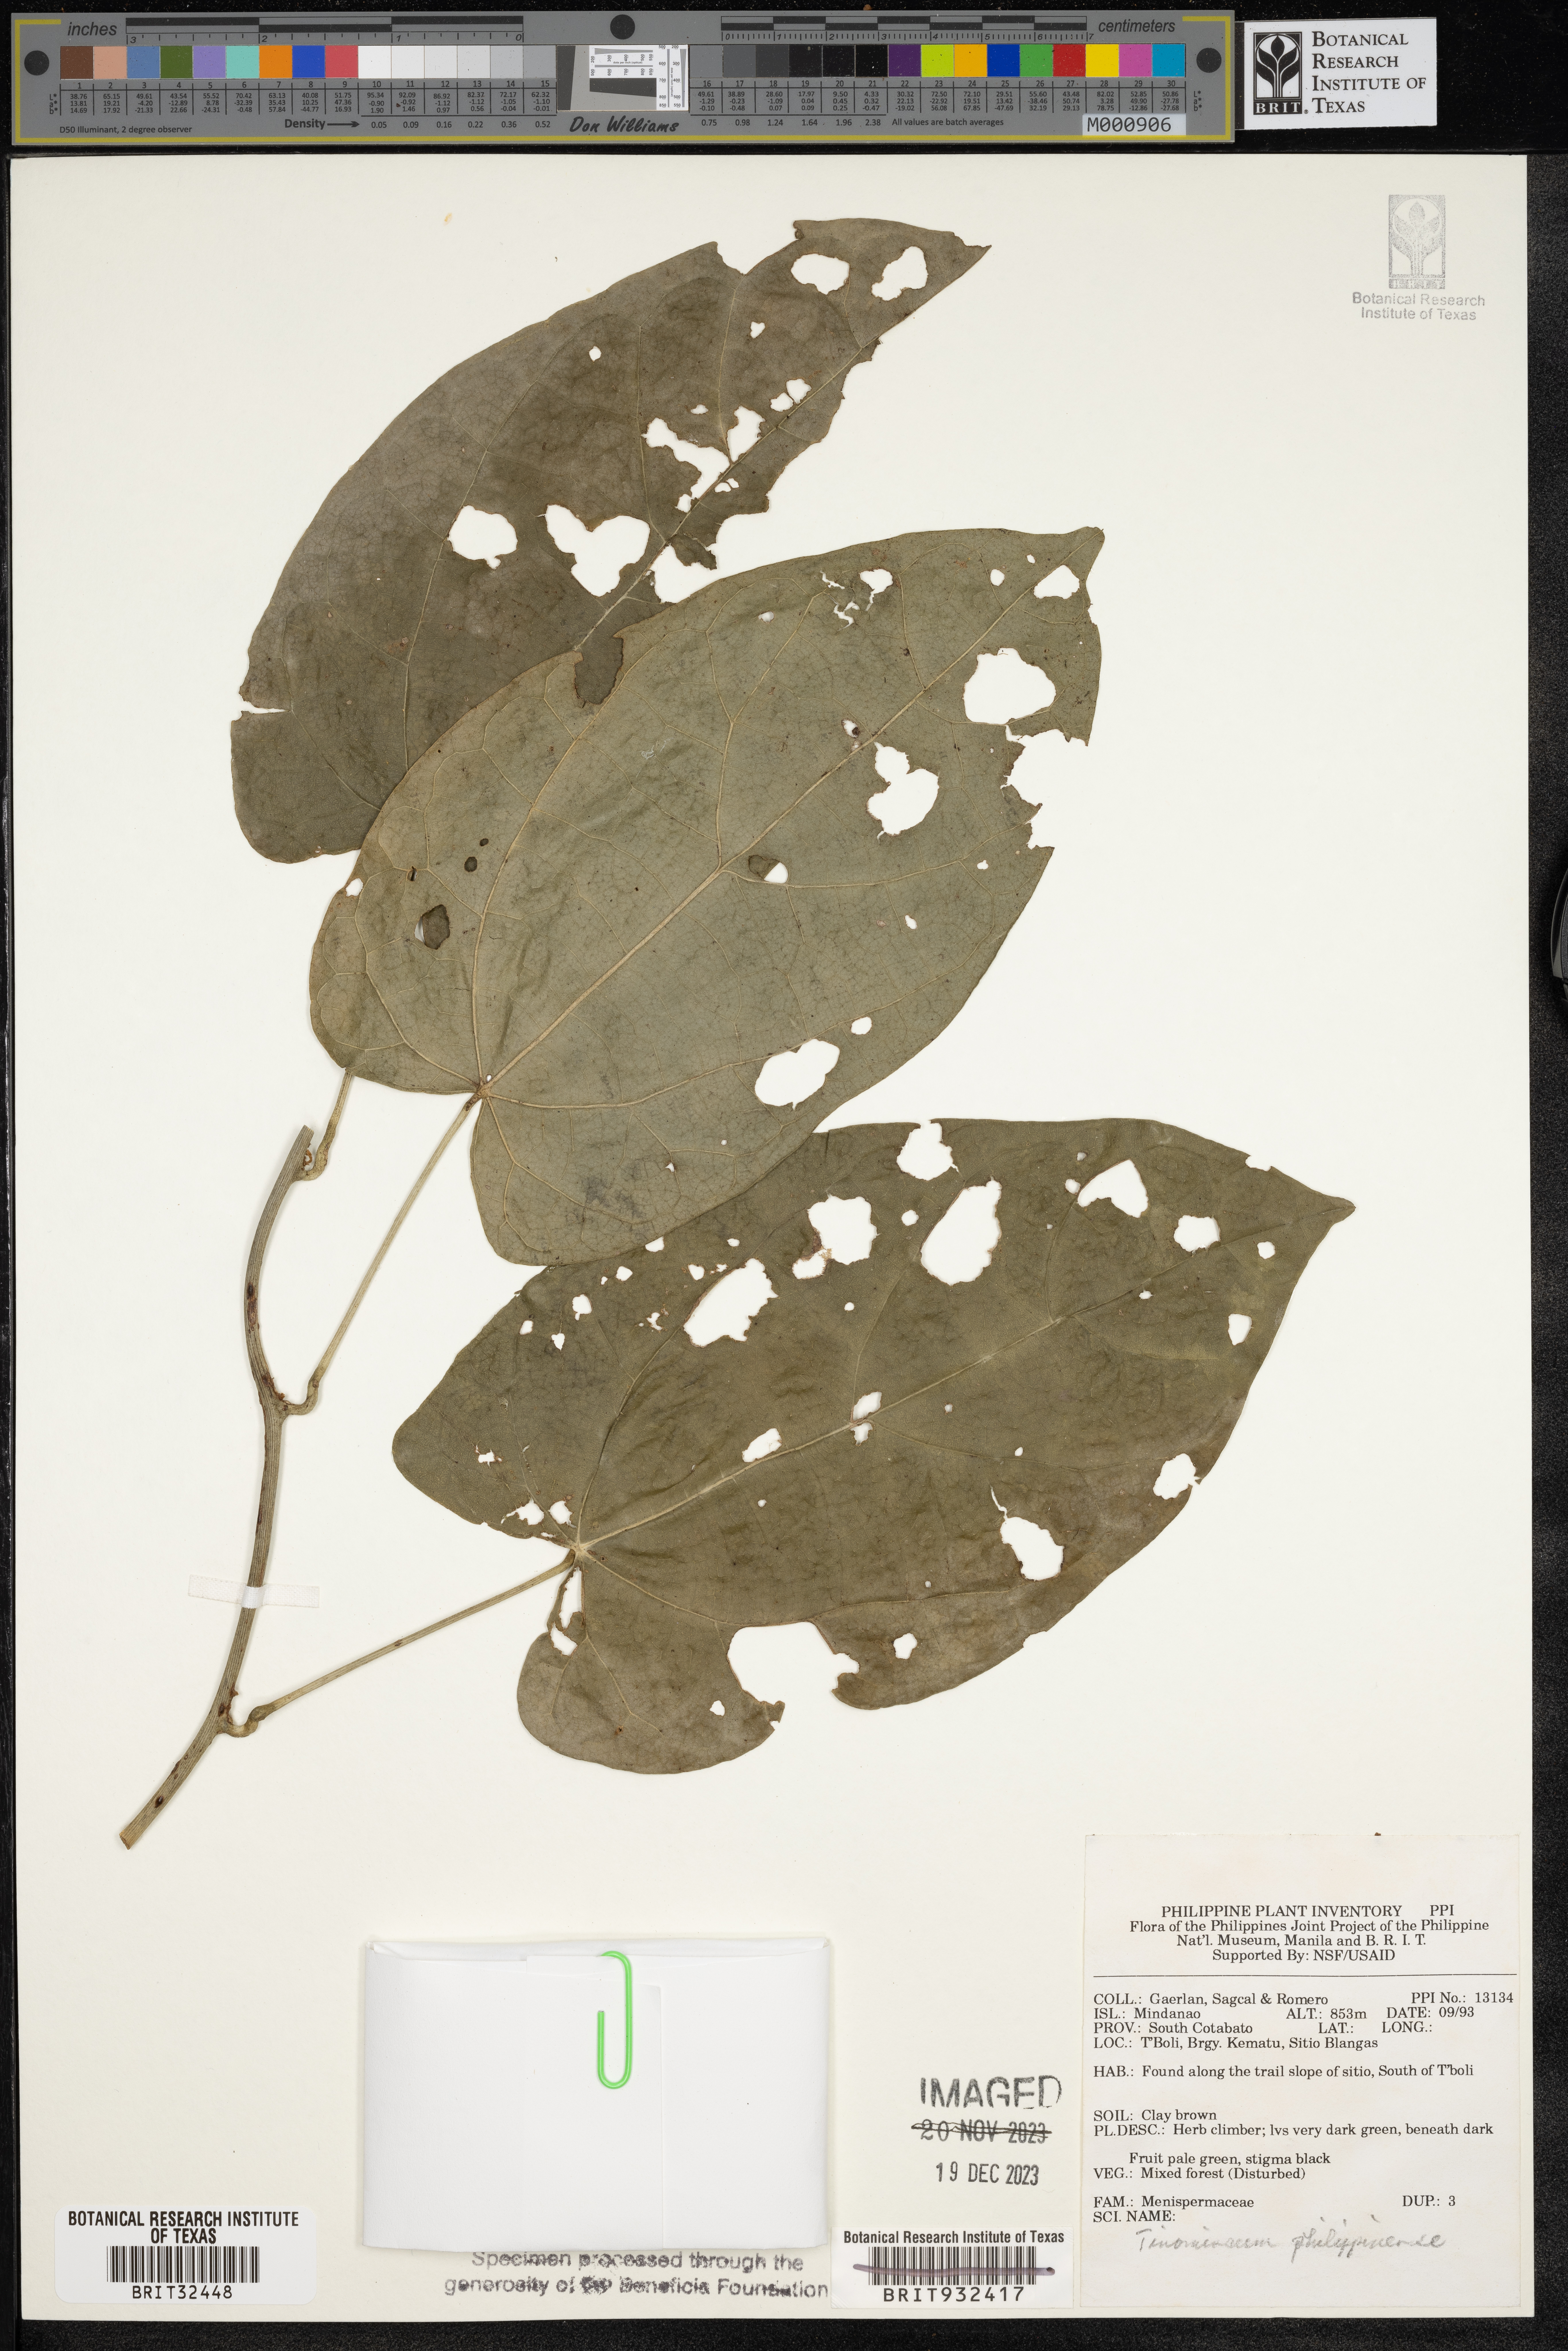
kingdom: Plantae
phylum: Tracheophyta
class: Magnoliopsida
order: Ranunculales
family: Menispermaceae
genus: Tinomiscium
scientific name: Tinomiscium petiolare
